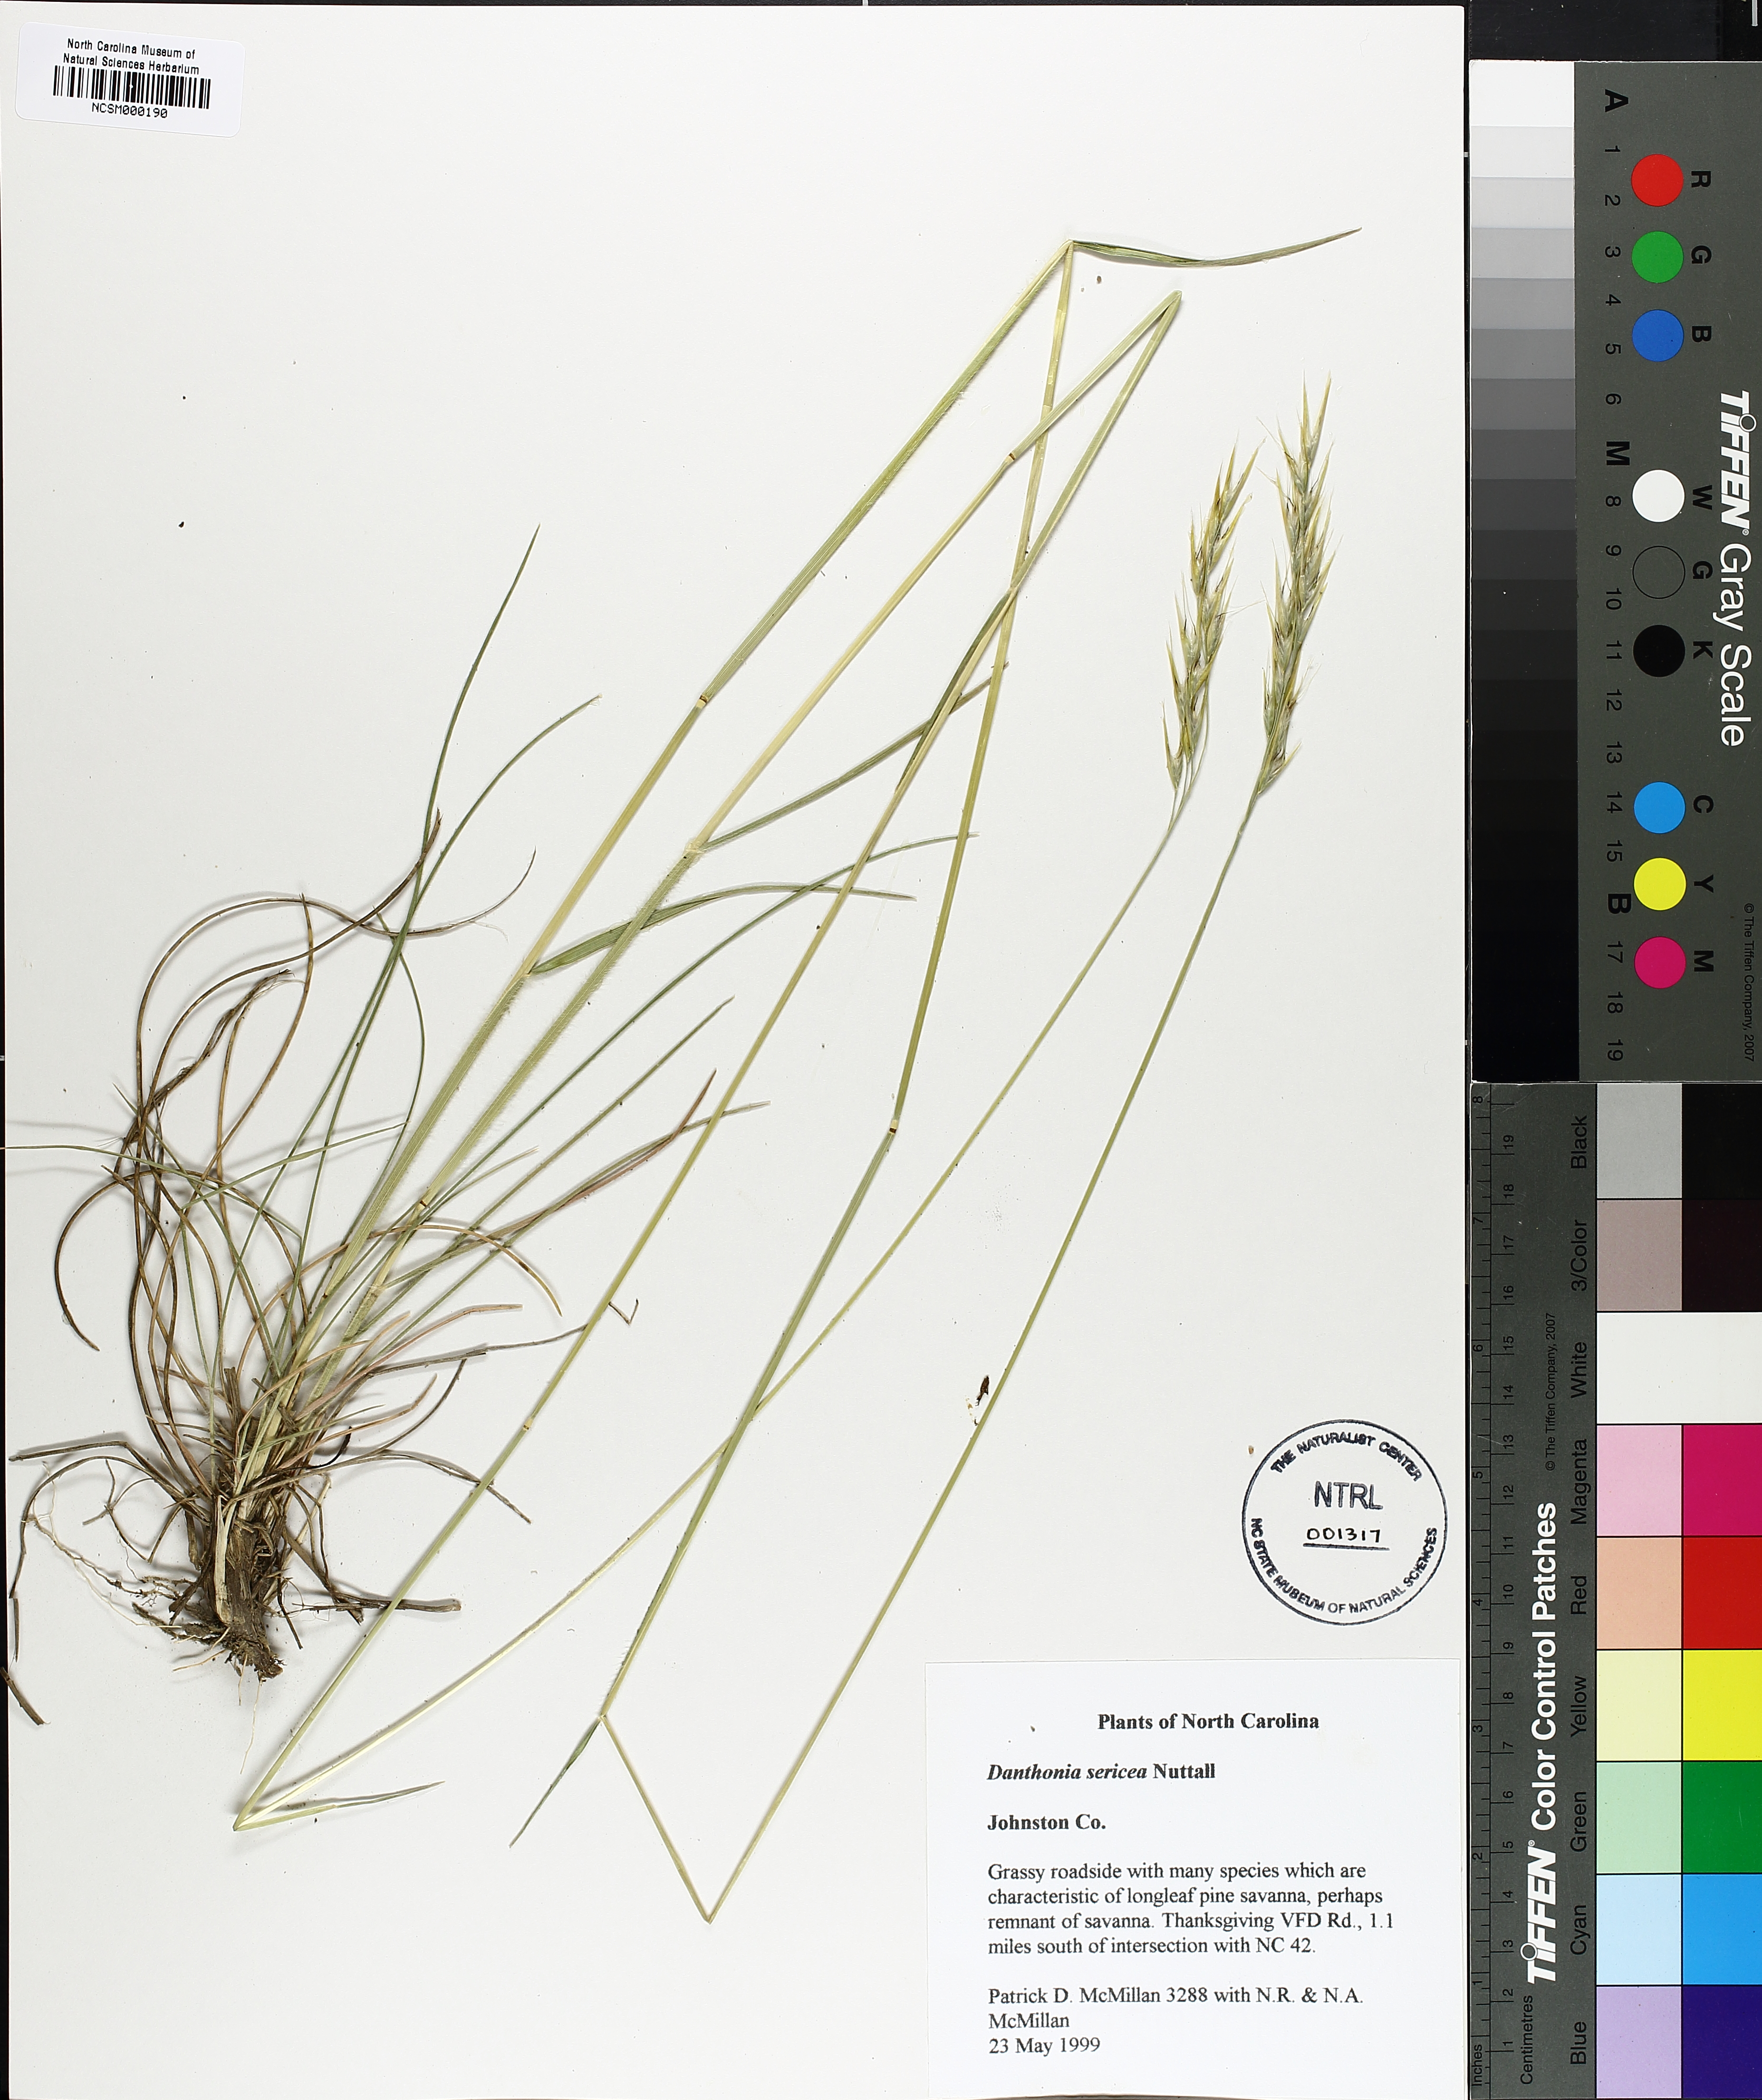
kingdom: Plantae
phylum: Tracheophyta
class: Liliopsida
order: Poales
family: Poaceae
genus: Danthonia
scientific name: Danthonia sericea
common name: Downy danthonia
